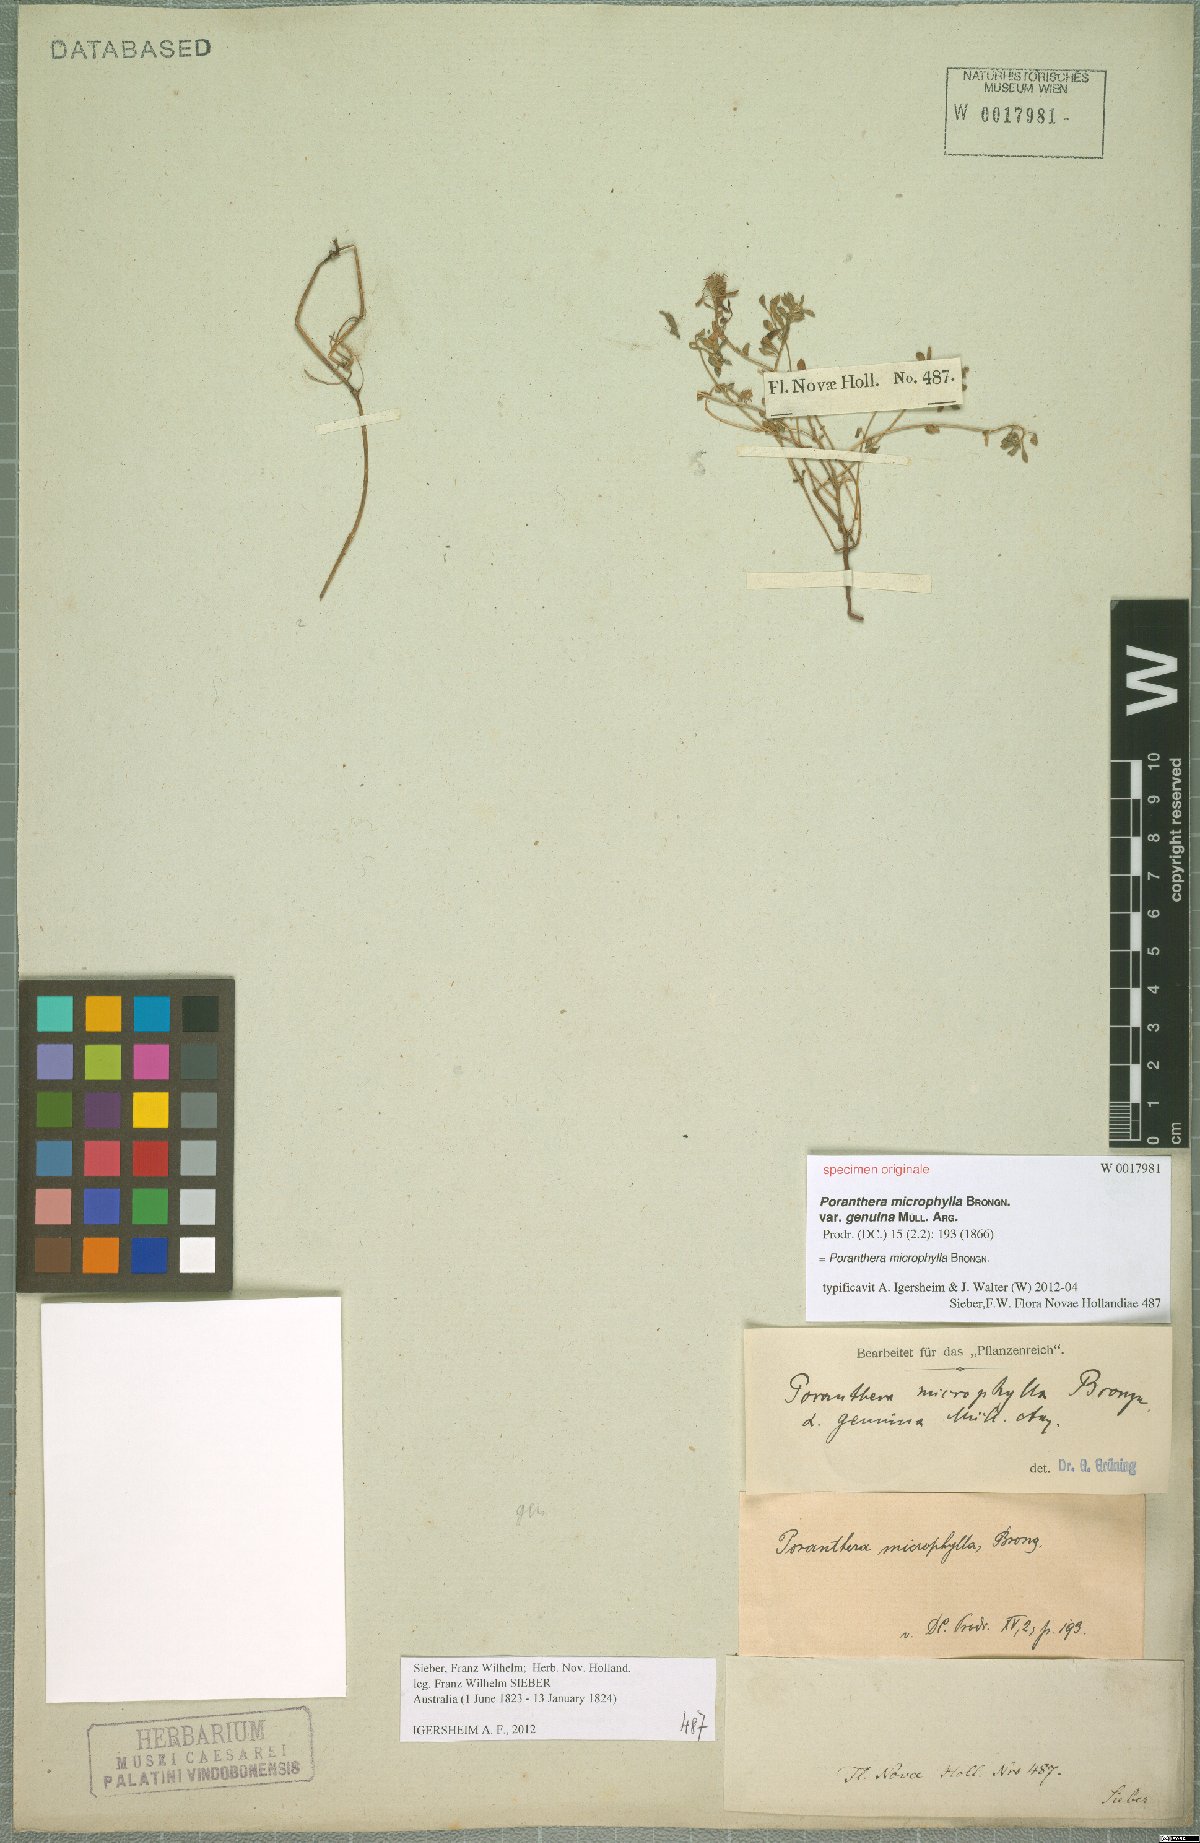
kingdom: Plantae
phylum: Tracheophyta
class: Magnoliopsida
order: Malpighiales
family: Phyllanthaceae
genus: Poranthera
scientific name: Poranthera microphylla
